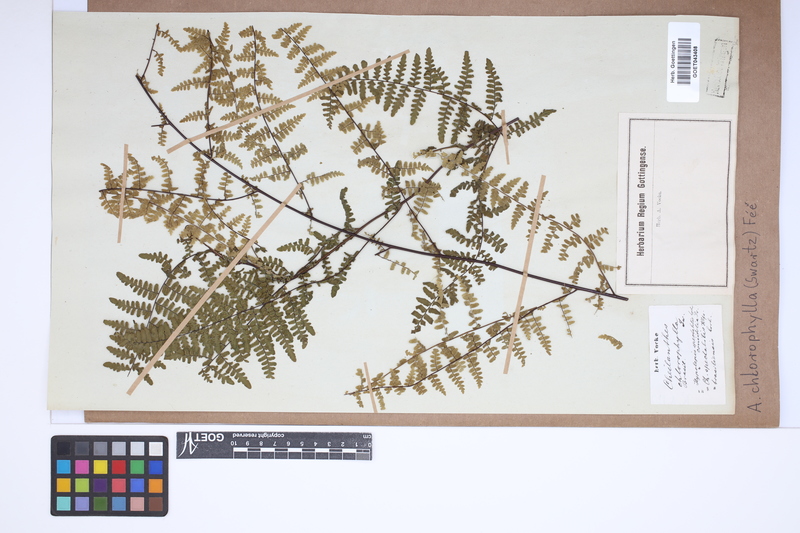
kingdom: Plantae
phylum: Tracheophyta
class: Polypodiopsida
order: Polypodiales
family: Pteridaceae
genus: Adiantopsis
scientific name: Adiantopsis chlorophylla
